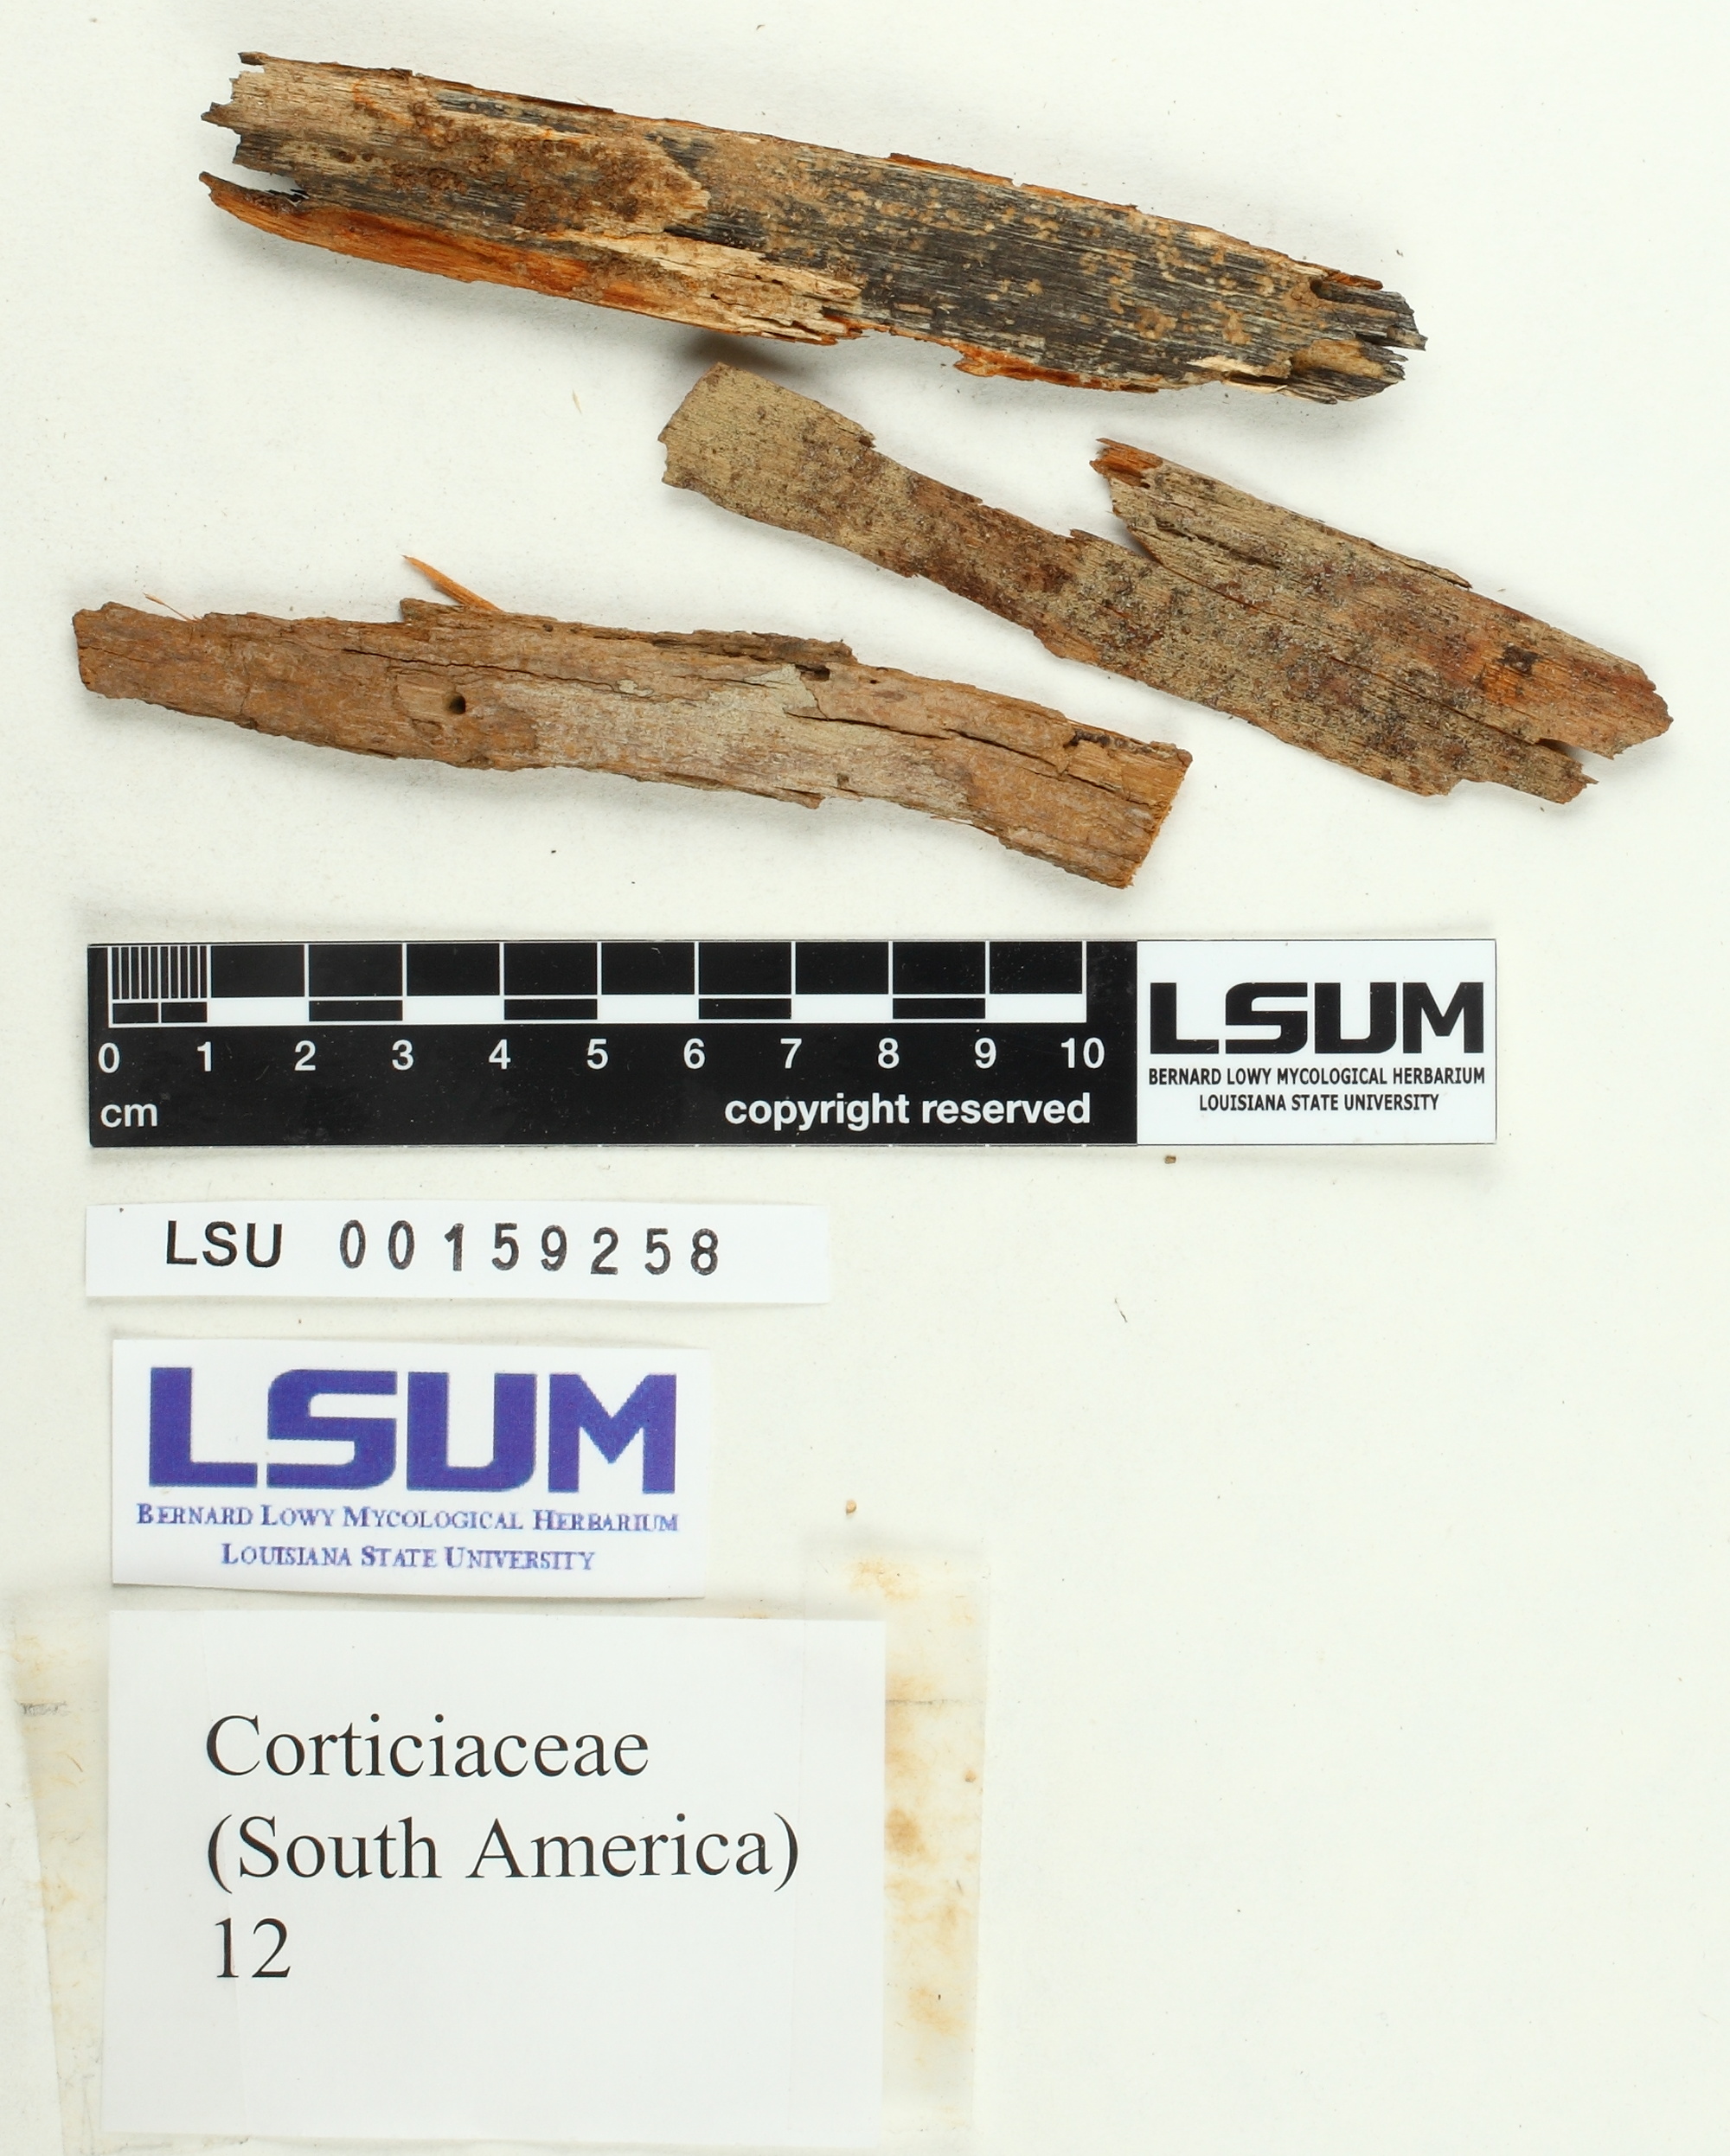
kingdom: Fungi
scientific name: Fungi
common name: Fungi
